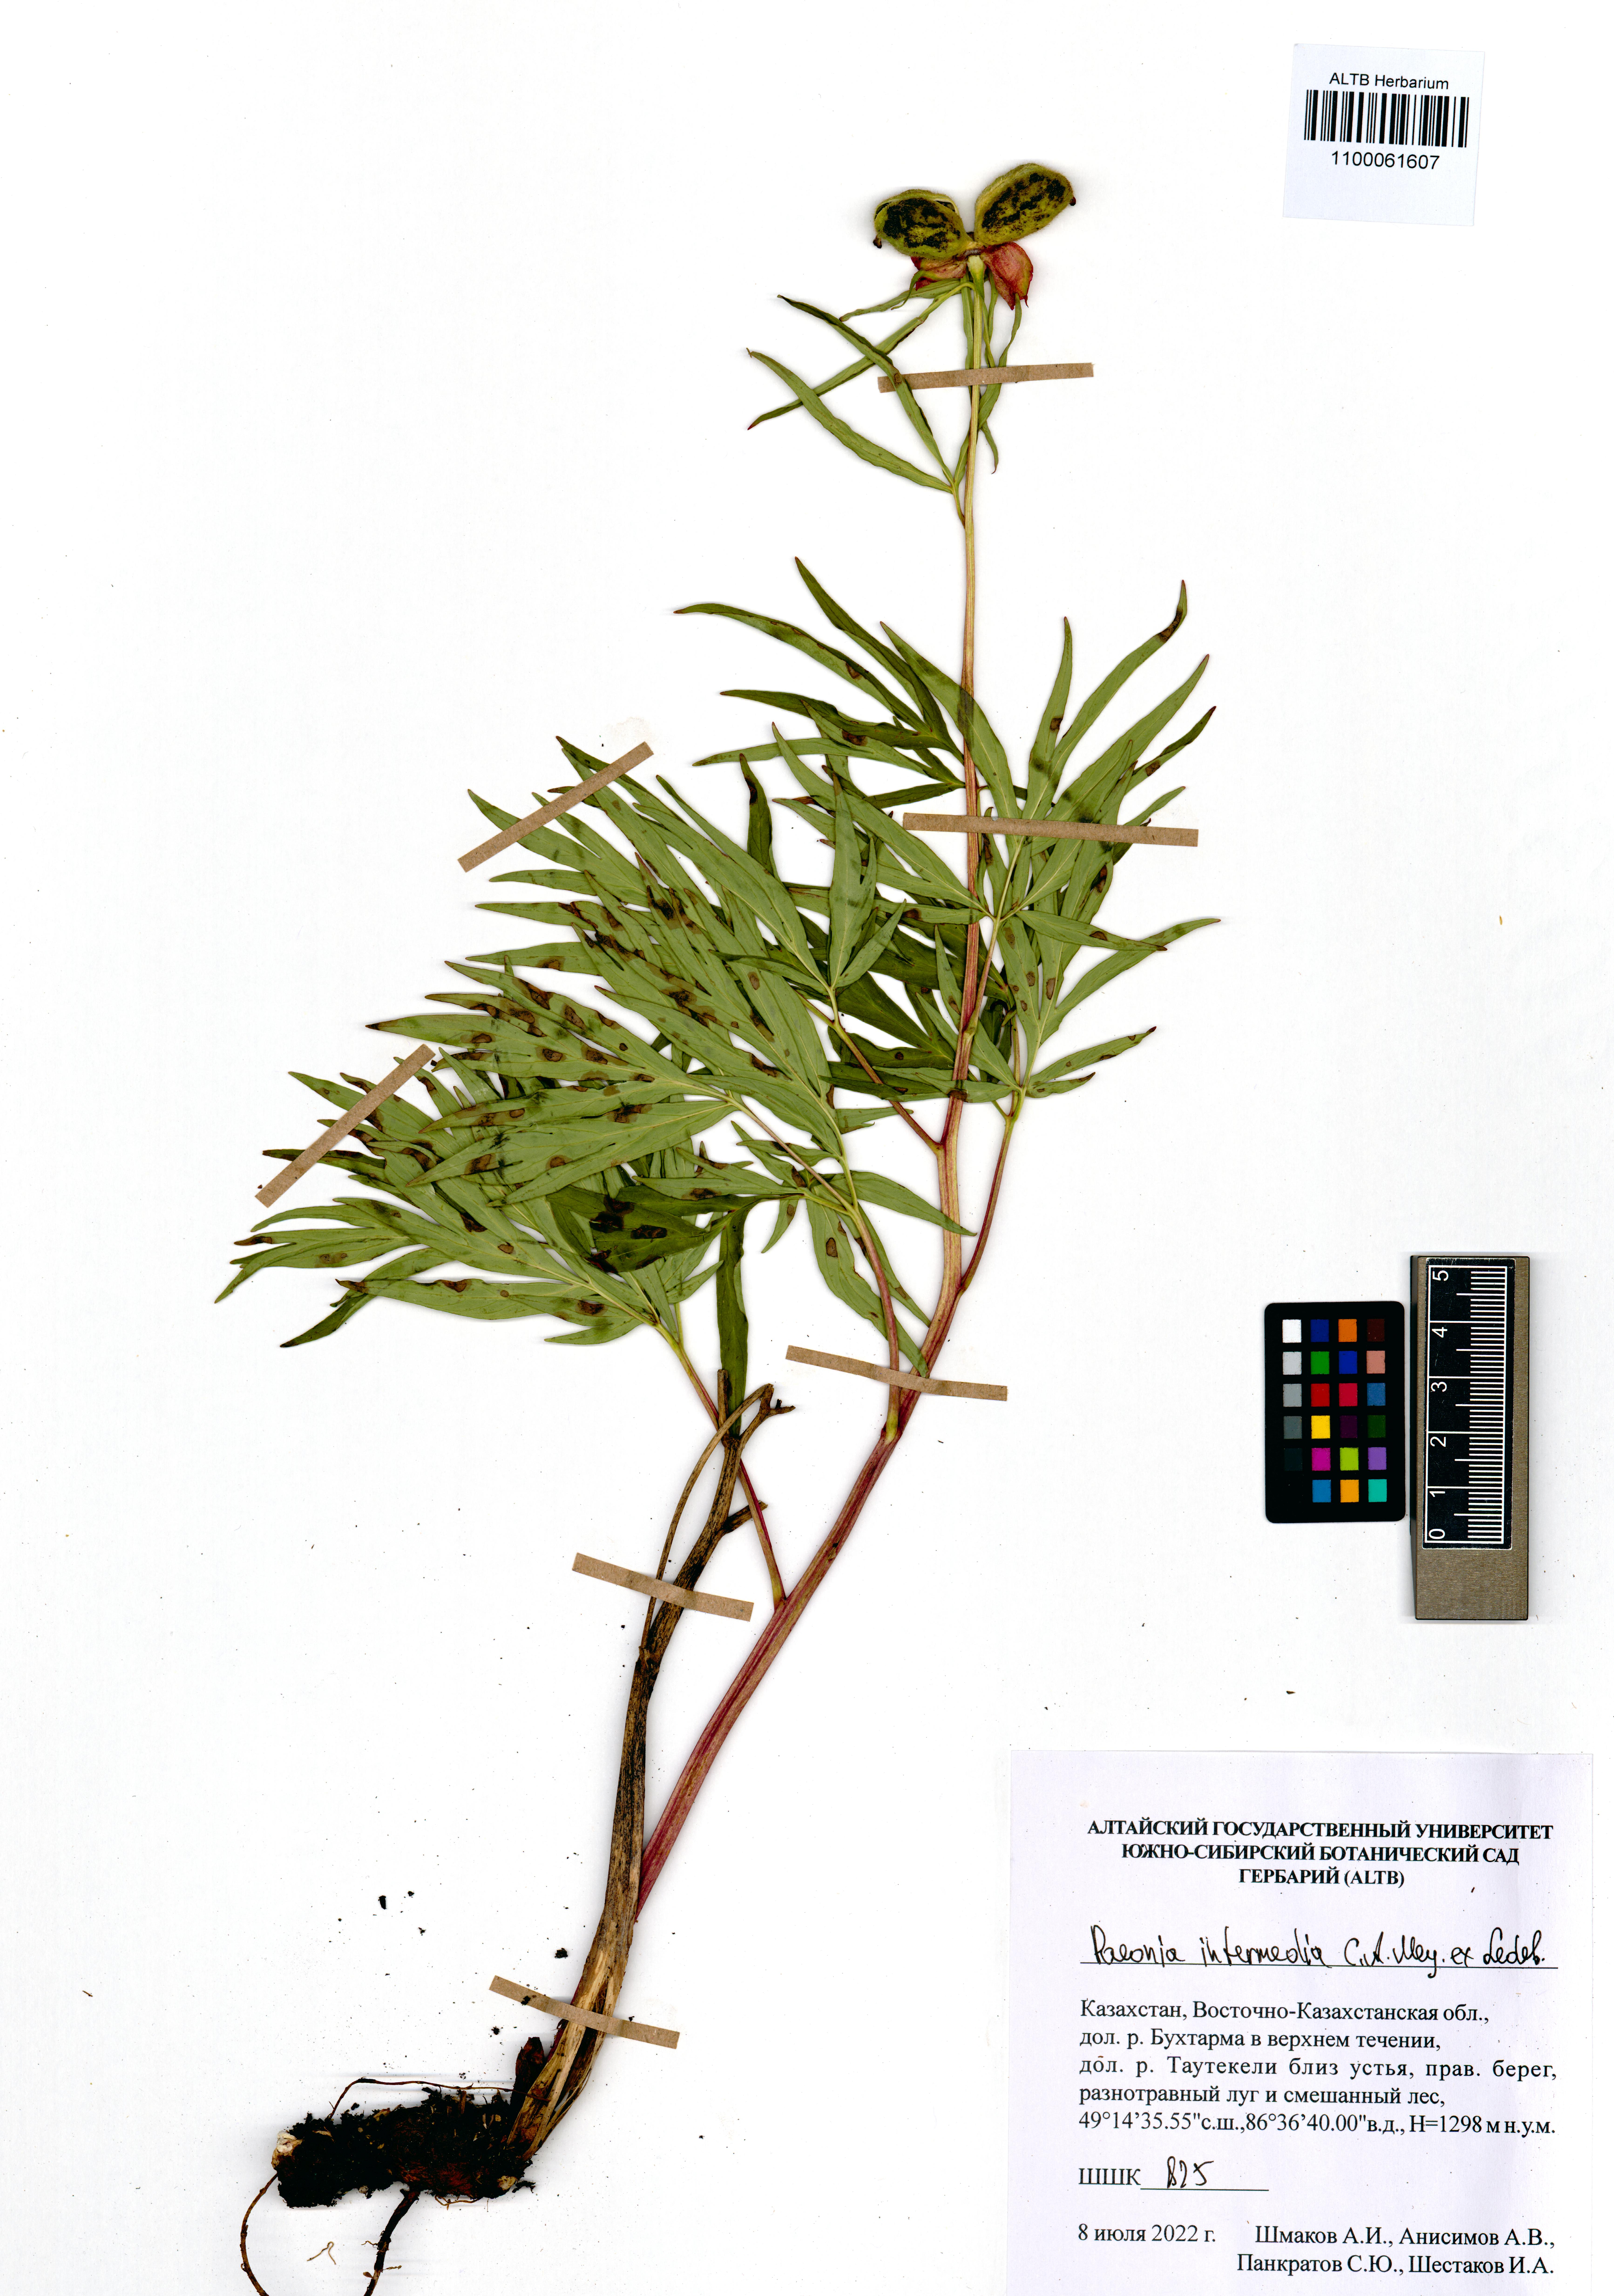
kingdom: Plantae
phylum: Tracheophyta
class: Magnoliopsida
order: Saxifragales
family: Paeoniaceae
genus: Paeonia
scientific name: Paeonia intermedia
